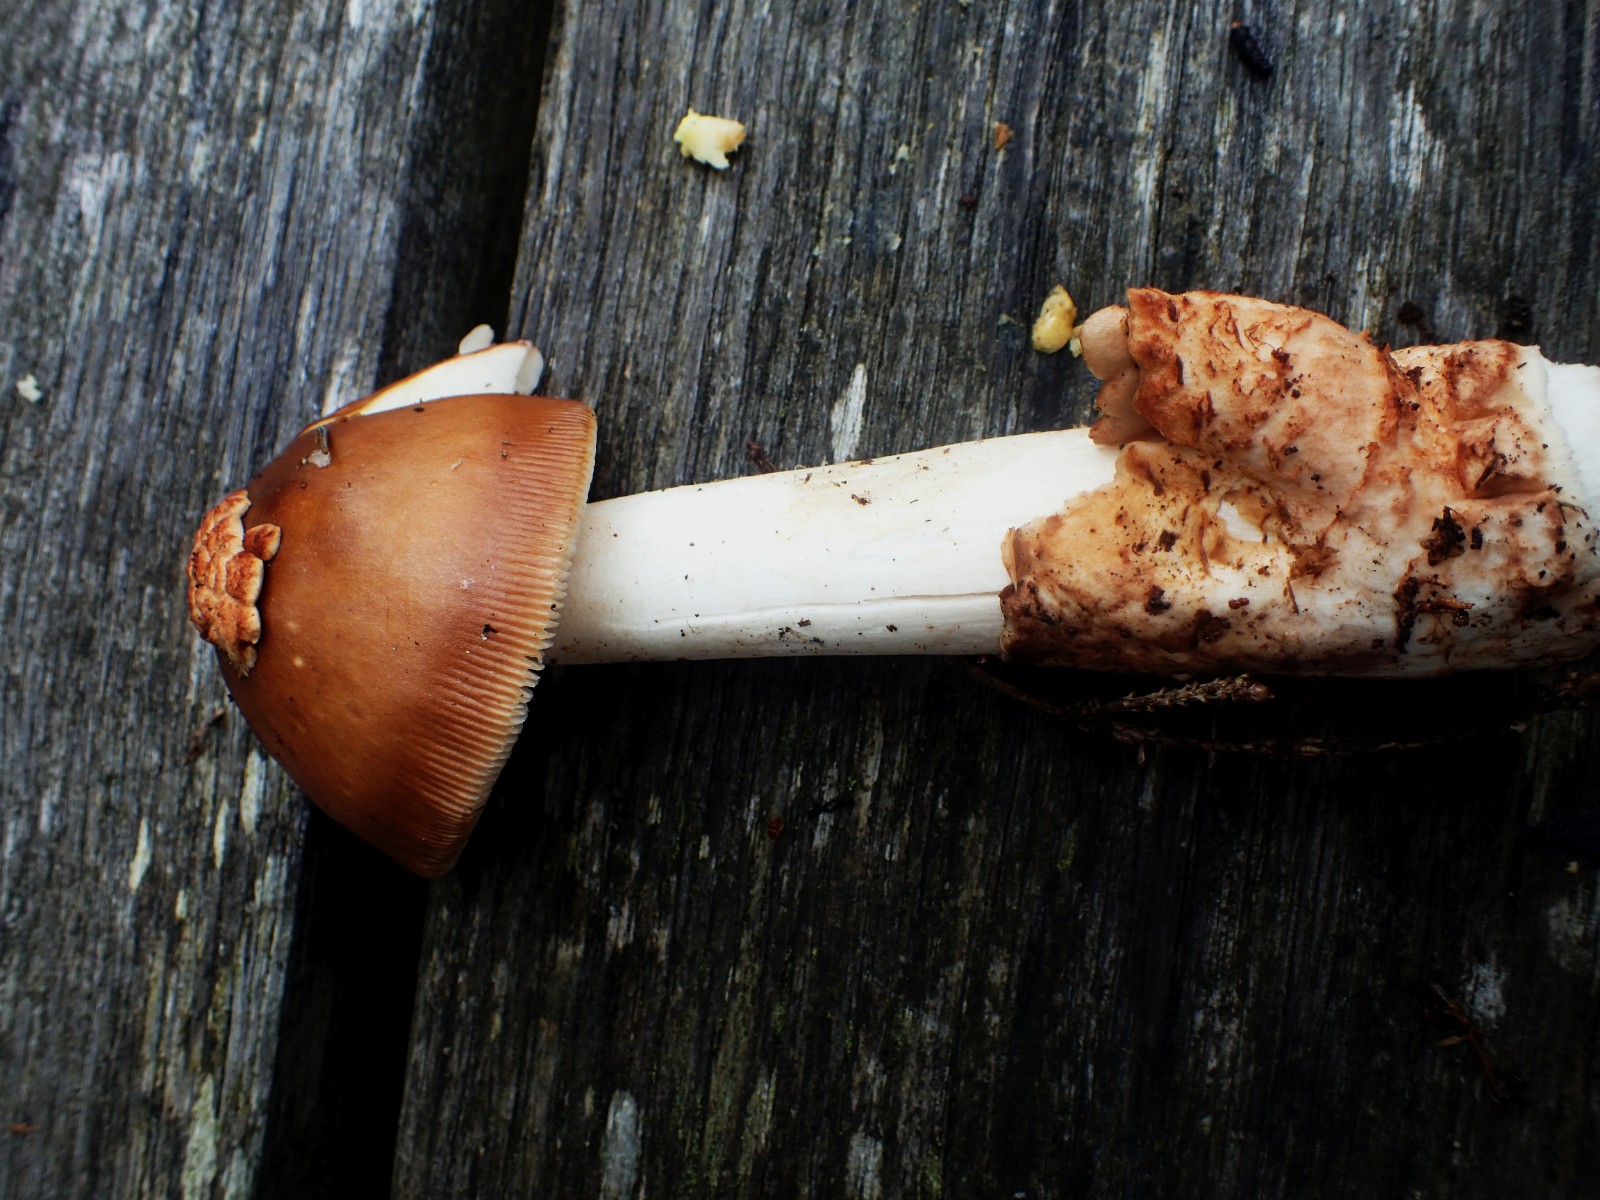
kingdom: Fungi
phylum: Basidiomycota
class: Agaricomycetes
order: Agaricales
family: Amanitaceae
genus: Amanita
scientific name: Amanita fulva
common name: brun kam-fluesvamp
